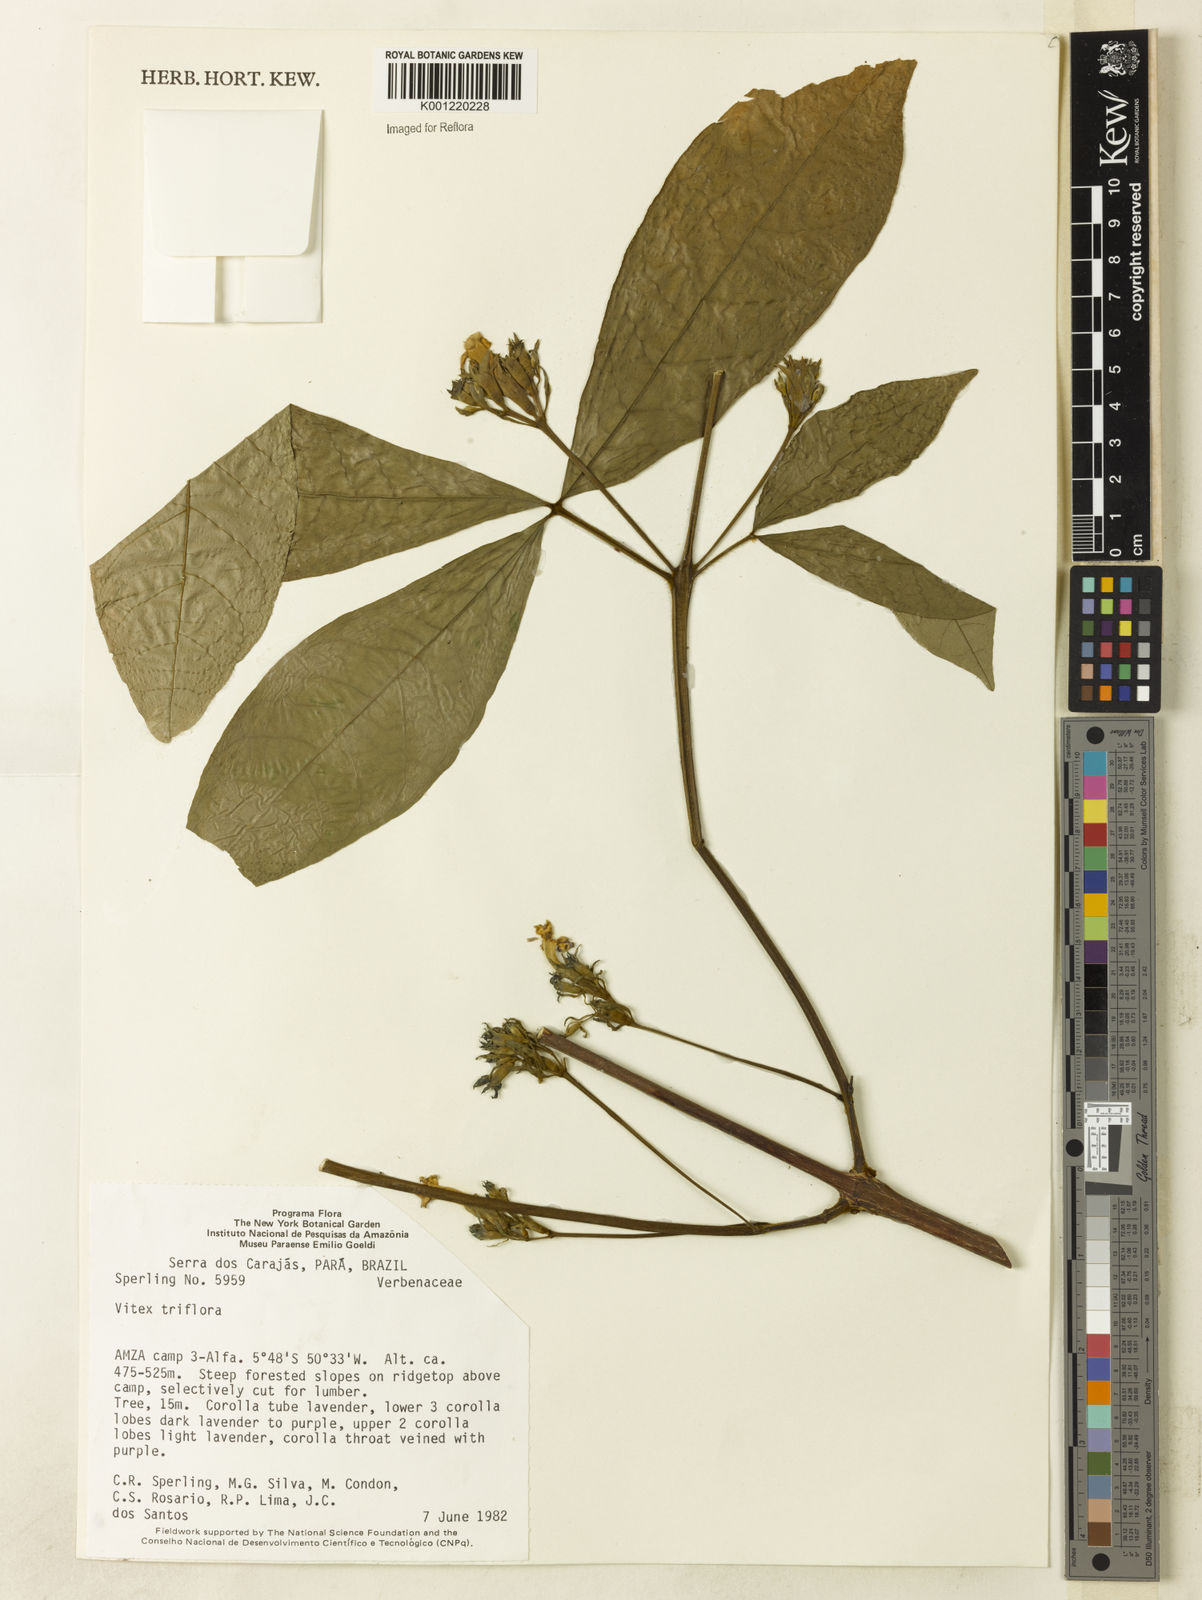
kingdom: Plantae
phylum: Tracheophyta
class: Magnoliopsida
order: Lamiales
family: Lamiaceae
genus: Vitex
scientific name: Vitex triflora
